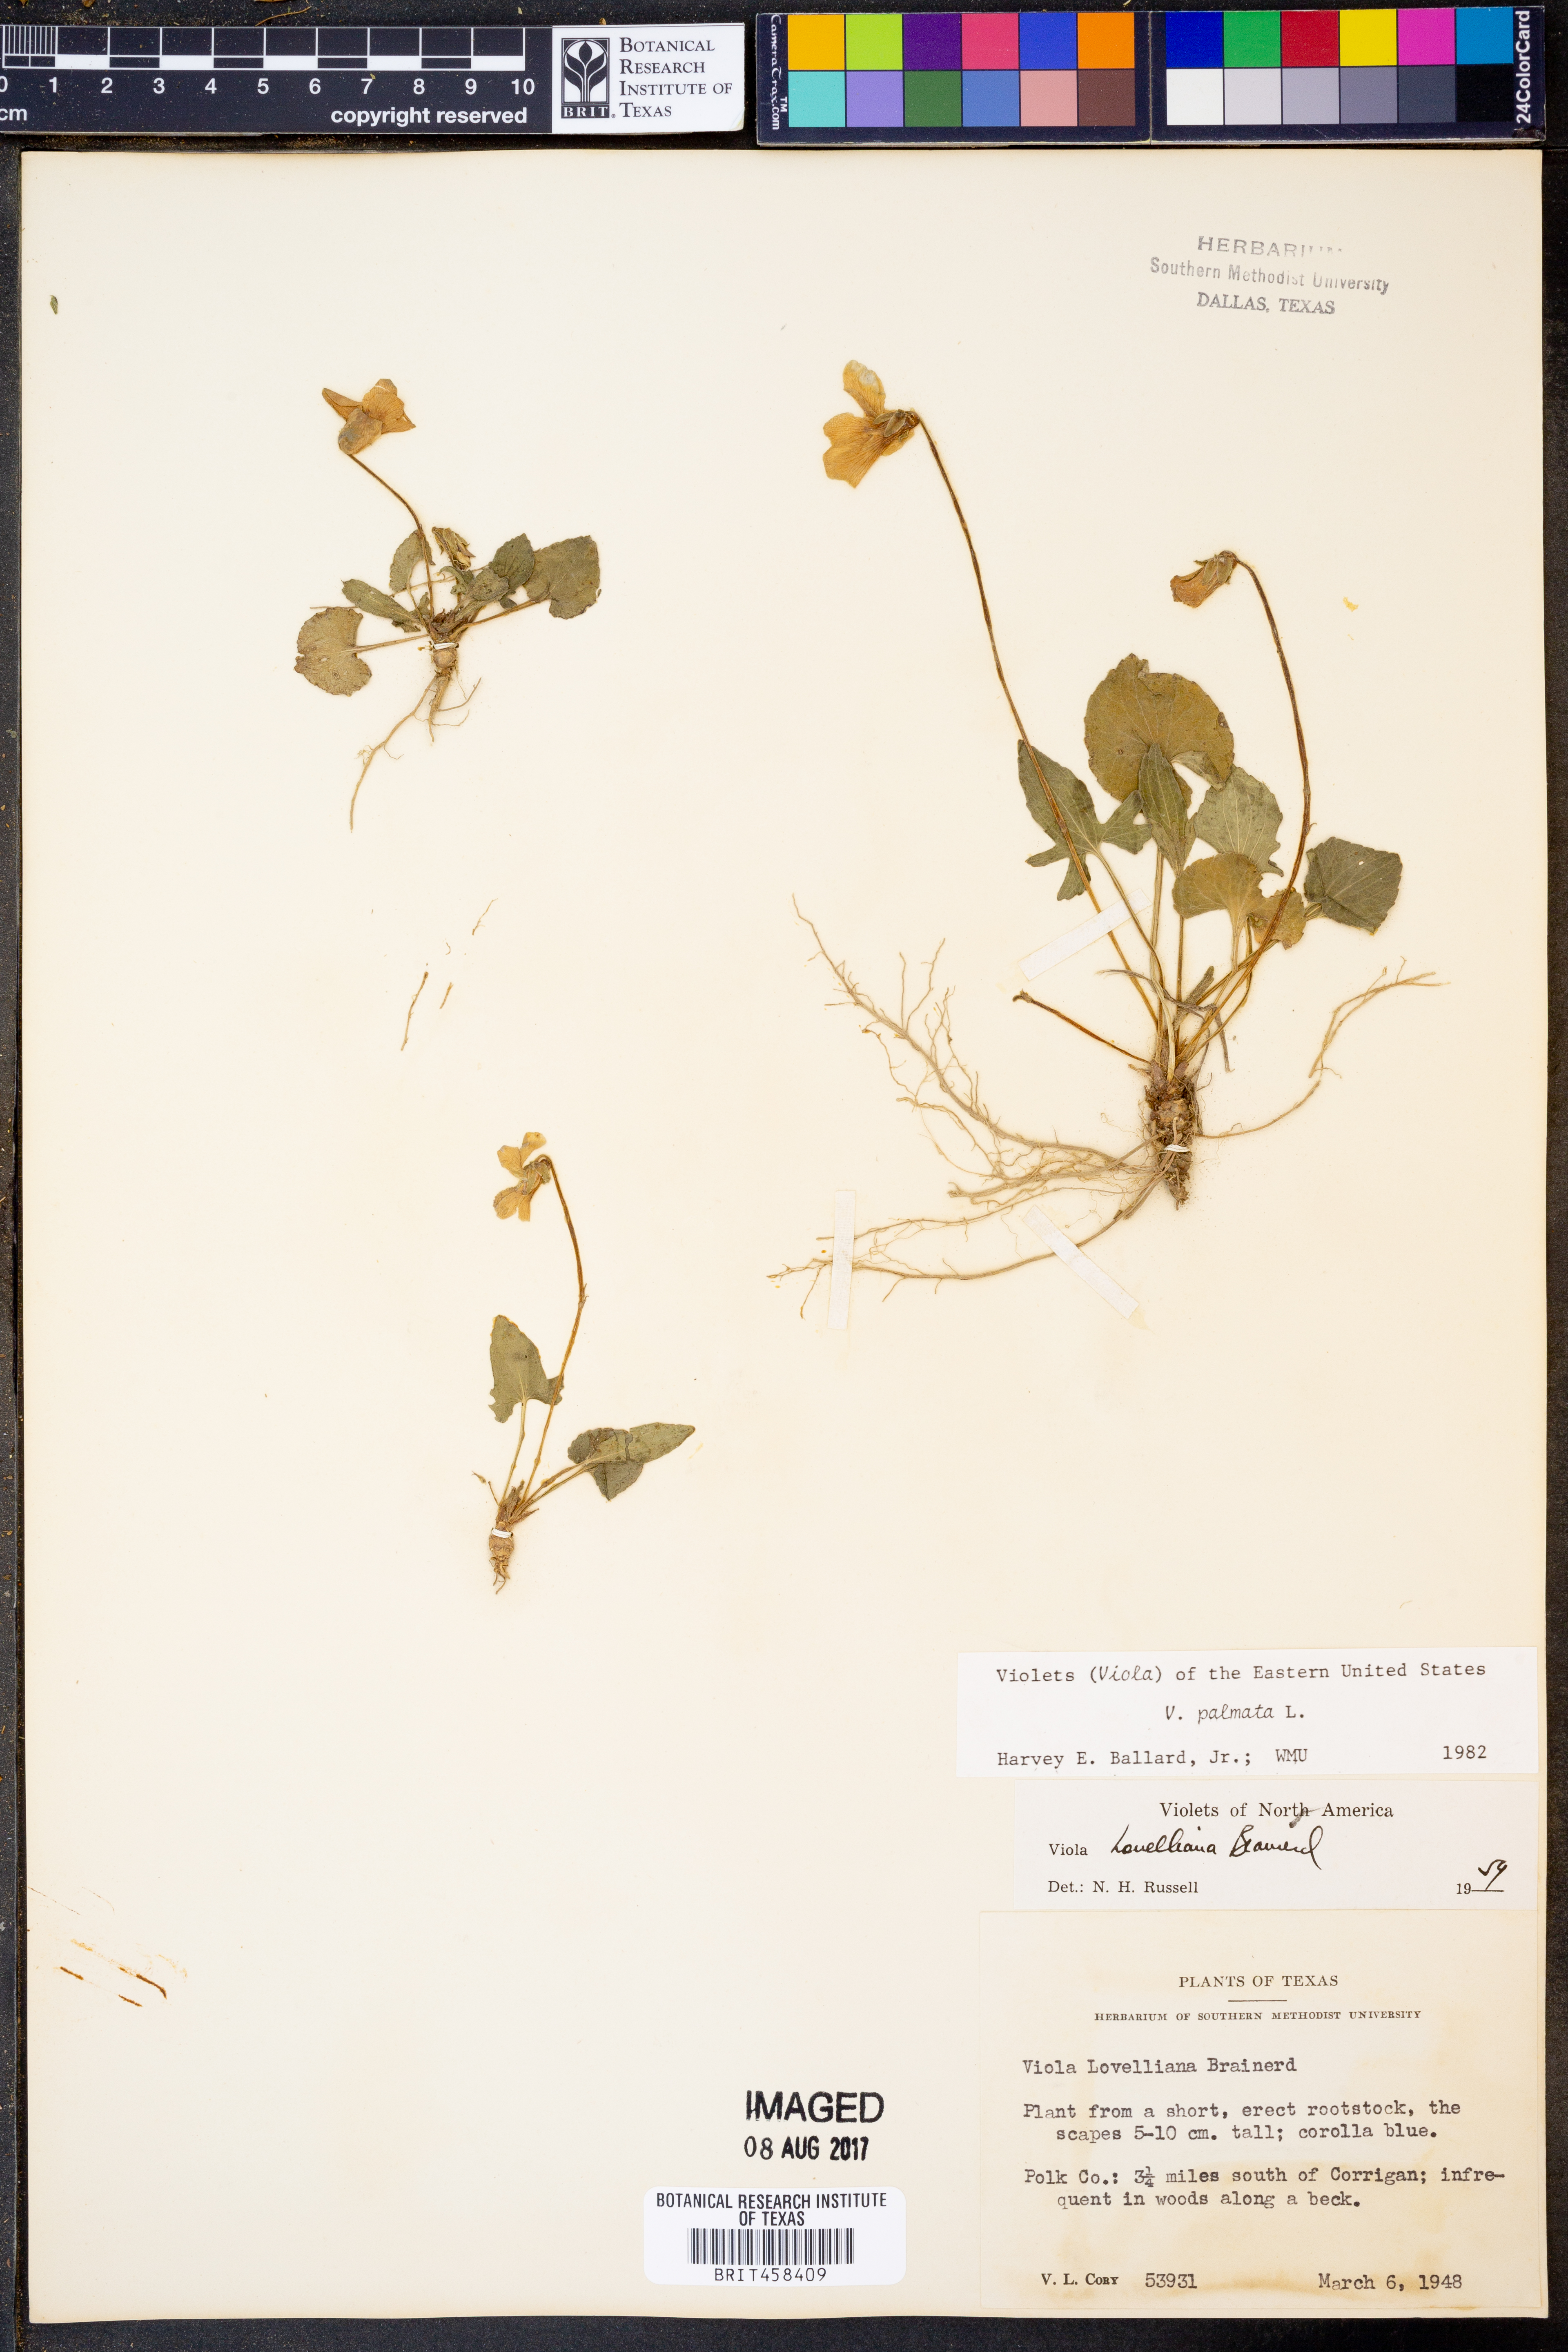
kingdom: Plantae
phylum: Tracheophyta
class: Magnoliopsida
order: Malpighiales
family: Violaceae
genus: Viola
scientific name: Viola palmata
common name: Early blue violet
